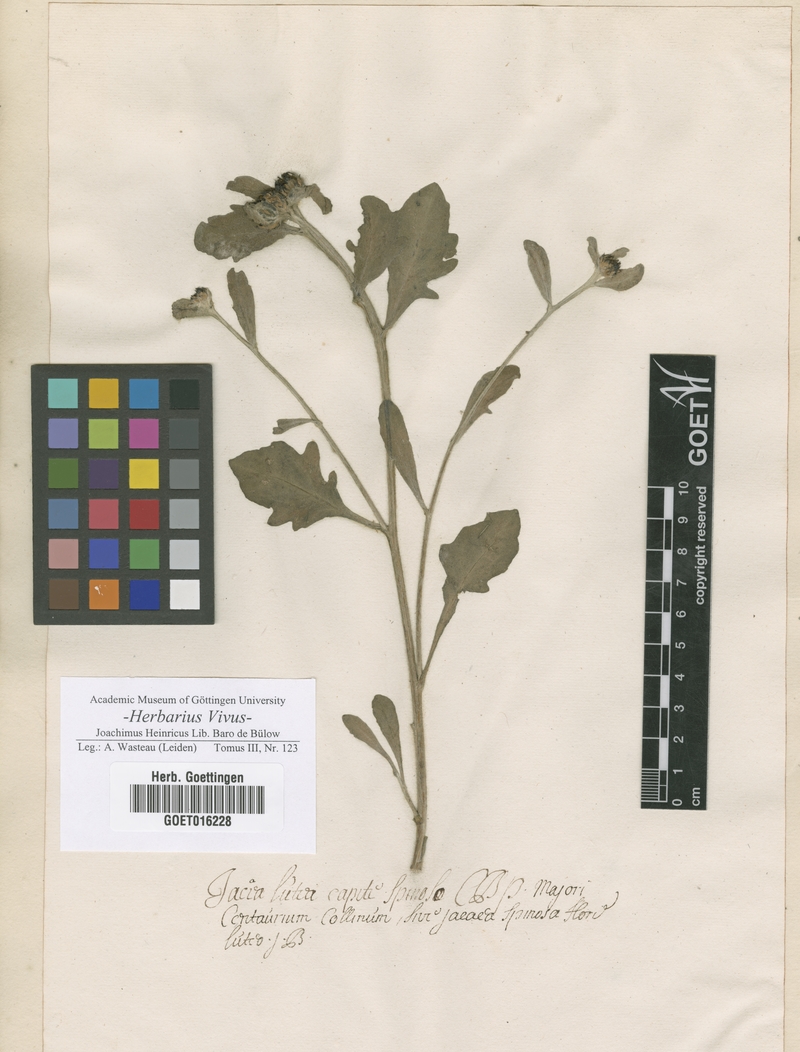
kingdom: Plantae
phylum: Tracheophyta
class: Magnoliopsida
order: Asterales
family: Asteraceae
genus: Centaurea
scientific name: Centaurea collina
